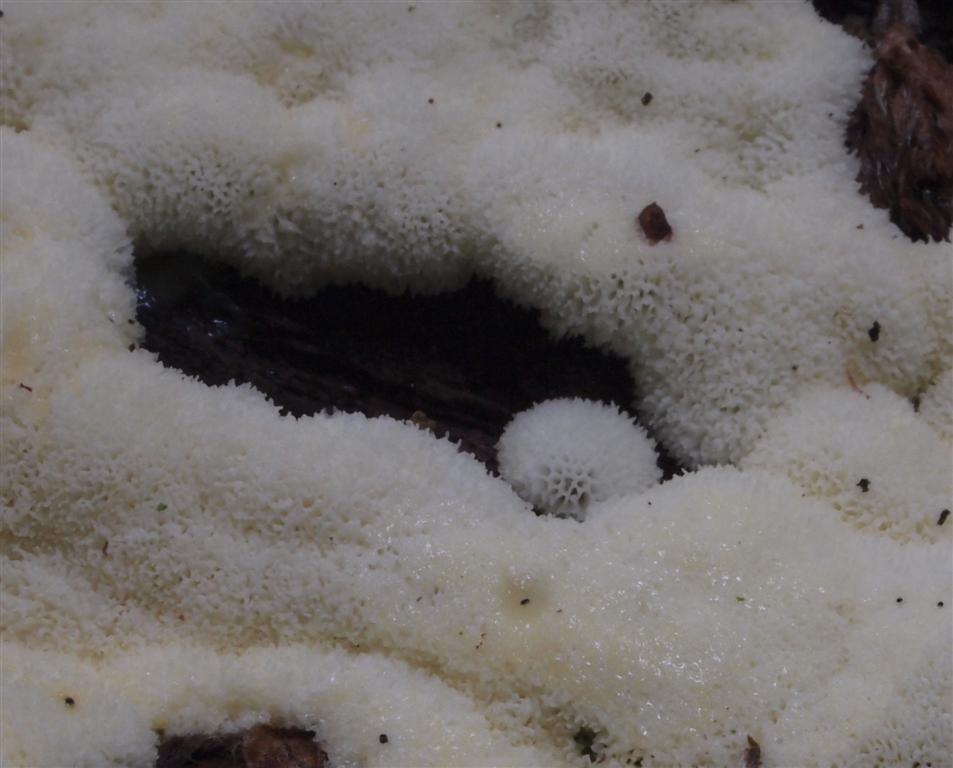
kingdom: Protozoa
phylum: Mycetozoa
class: Protosteliomycetes
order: Ceratiomyxales
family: Ceratiomyxaceae
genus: Ceratiomyxa
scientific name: Ceratiomyxa fruticulosa
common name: Honeycomb coral slime mold
